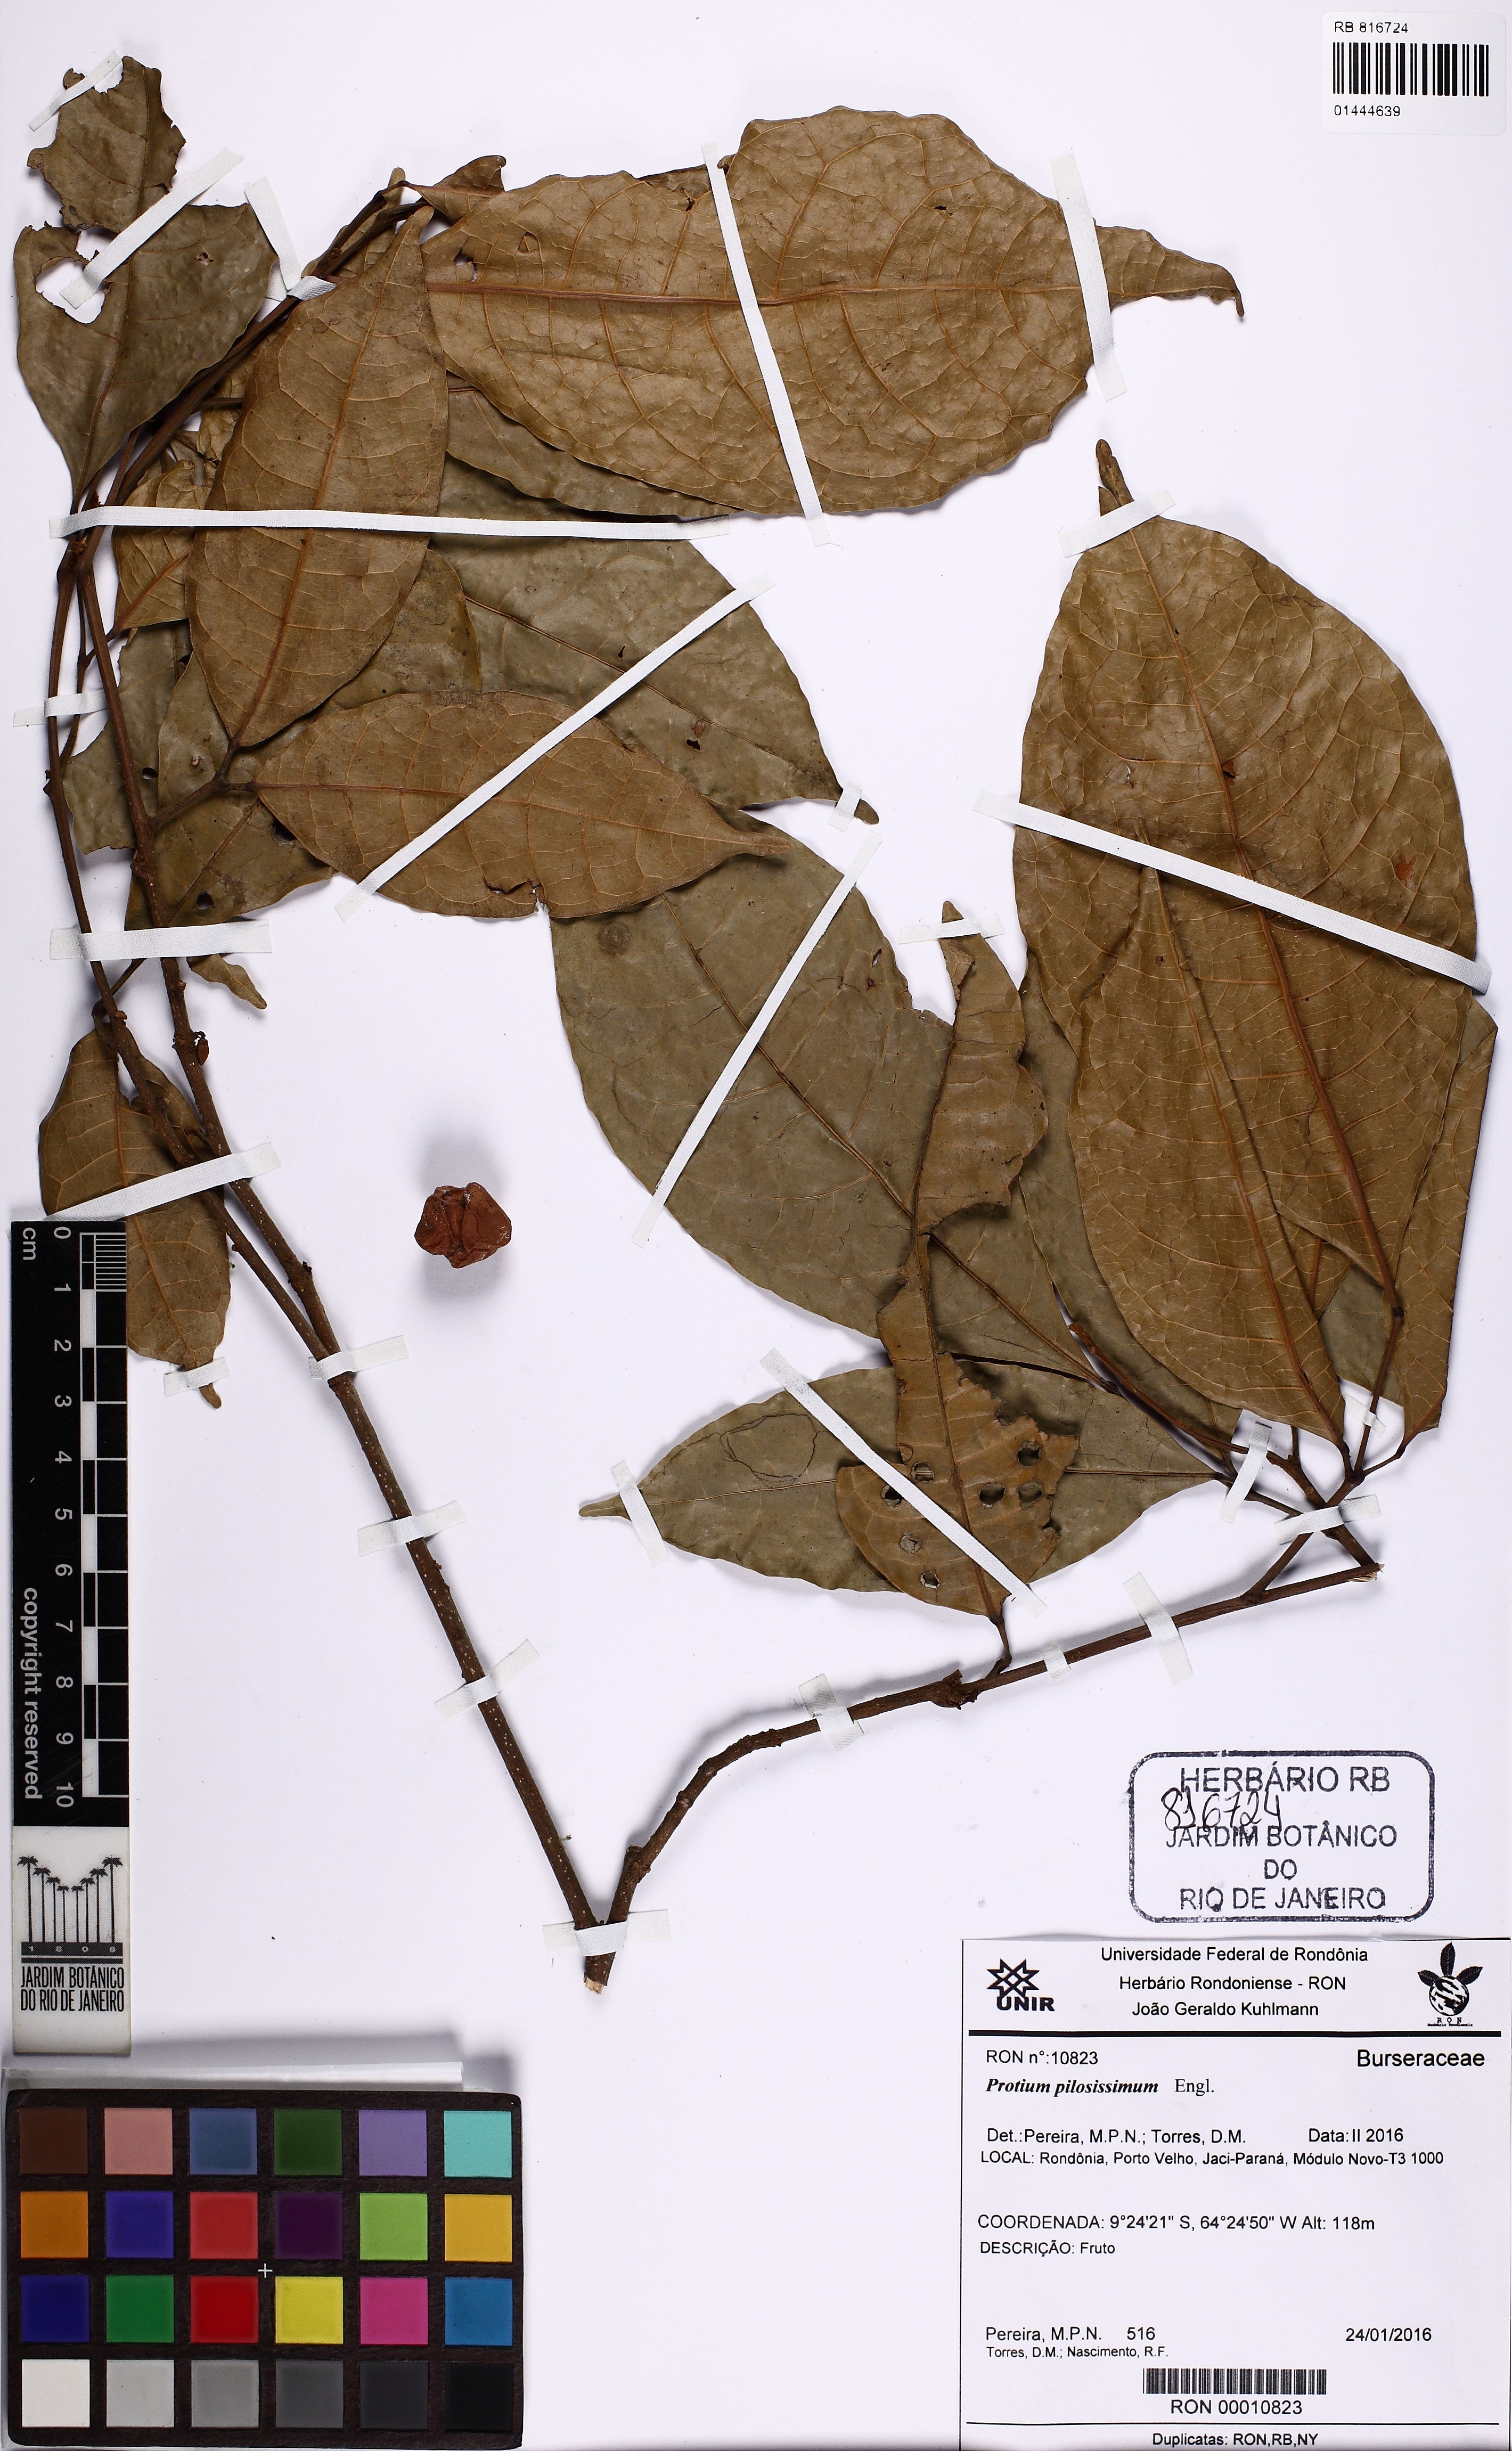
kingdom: Plantae
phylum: Tracheophyta
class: Magnoliopsida
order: Sapindales
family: Burseraceae
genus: Protium
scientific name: Protium pilosissimum
